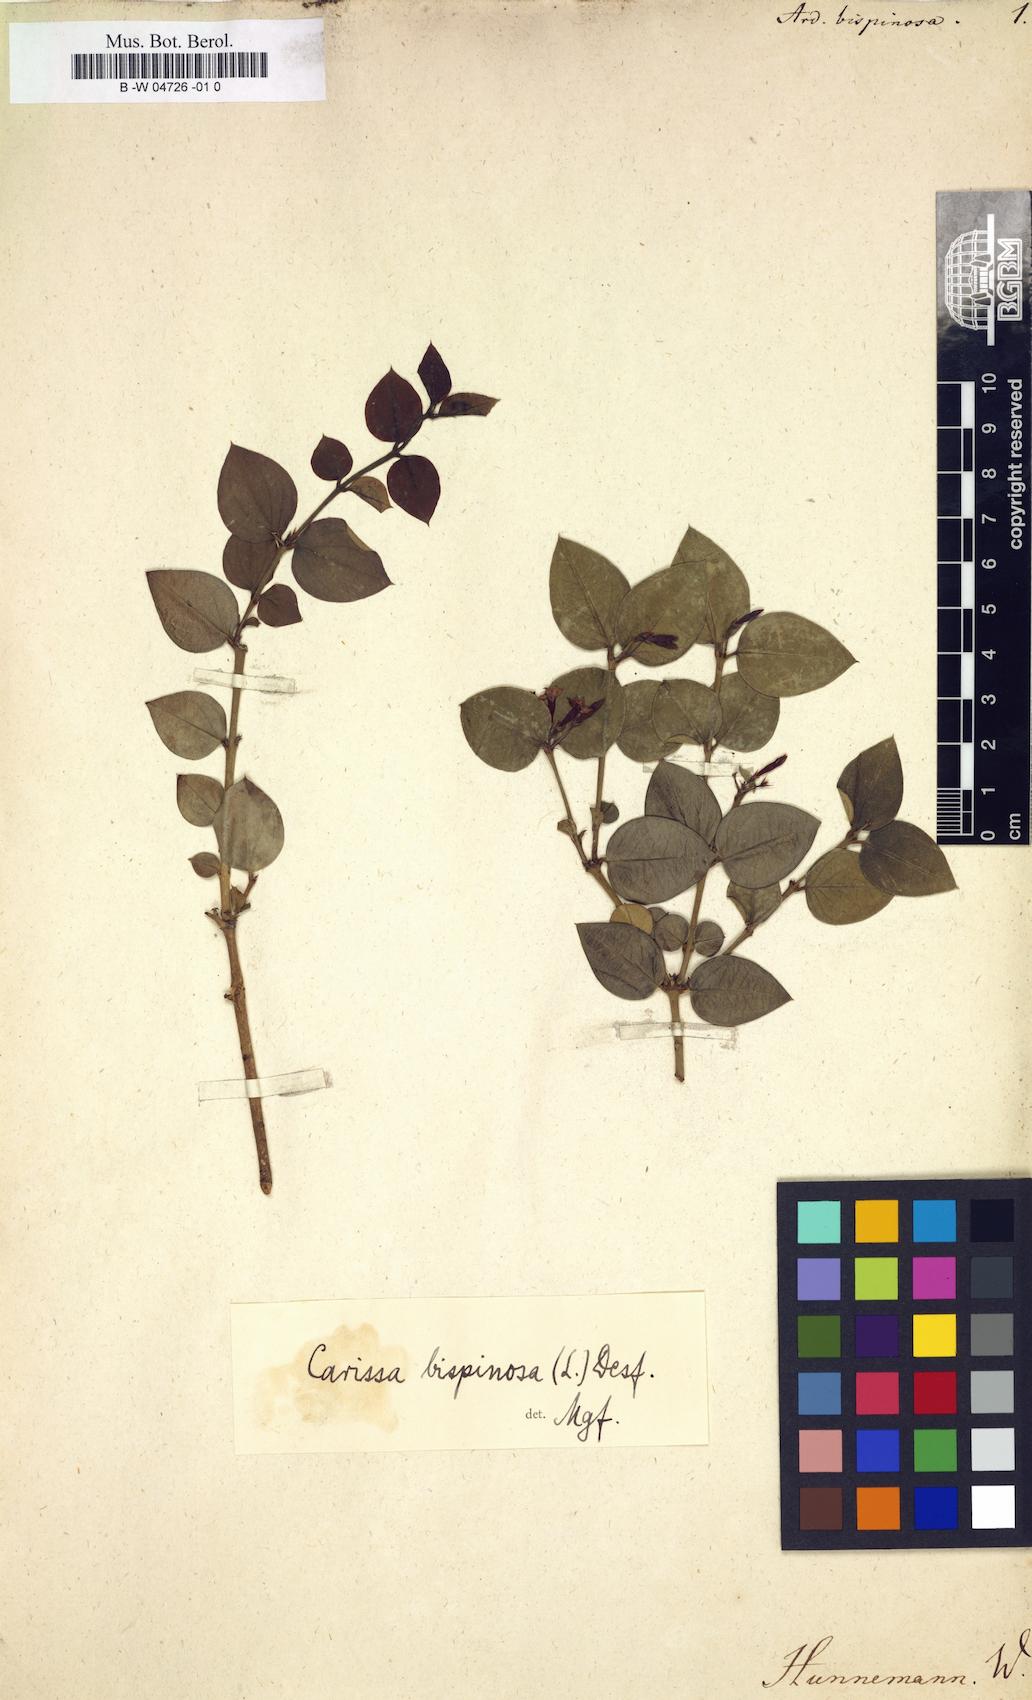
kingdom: Plantae
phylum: Tracheophyta
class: Magnoliopsida
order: Gentianales
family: Apocynaceae
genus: Carissa
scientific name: Carissa bispinosa
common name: Forest num-num
